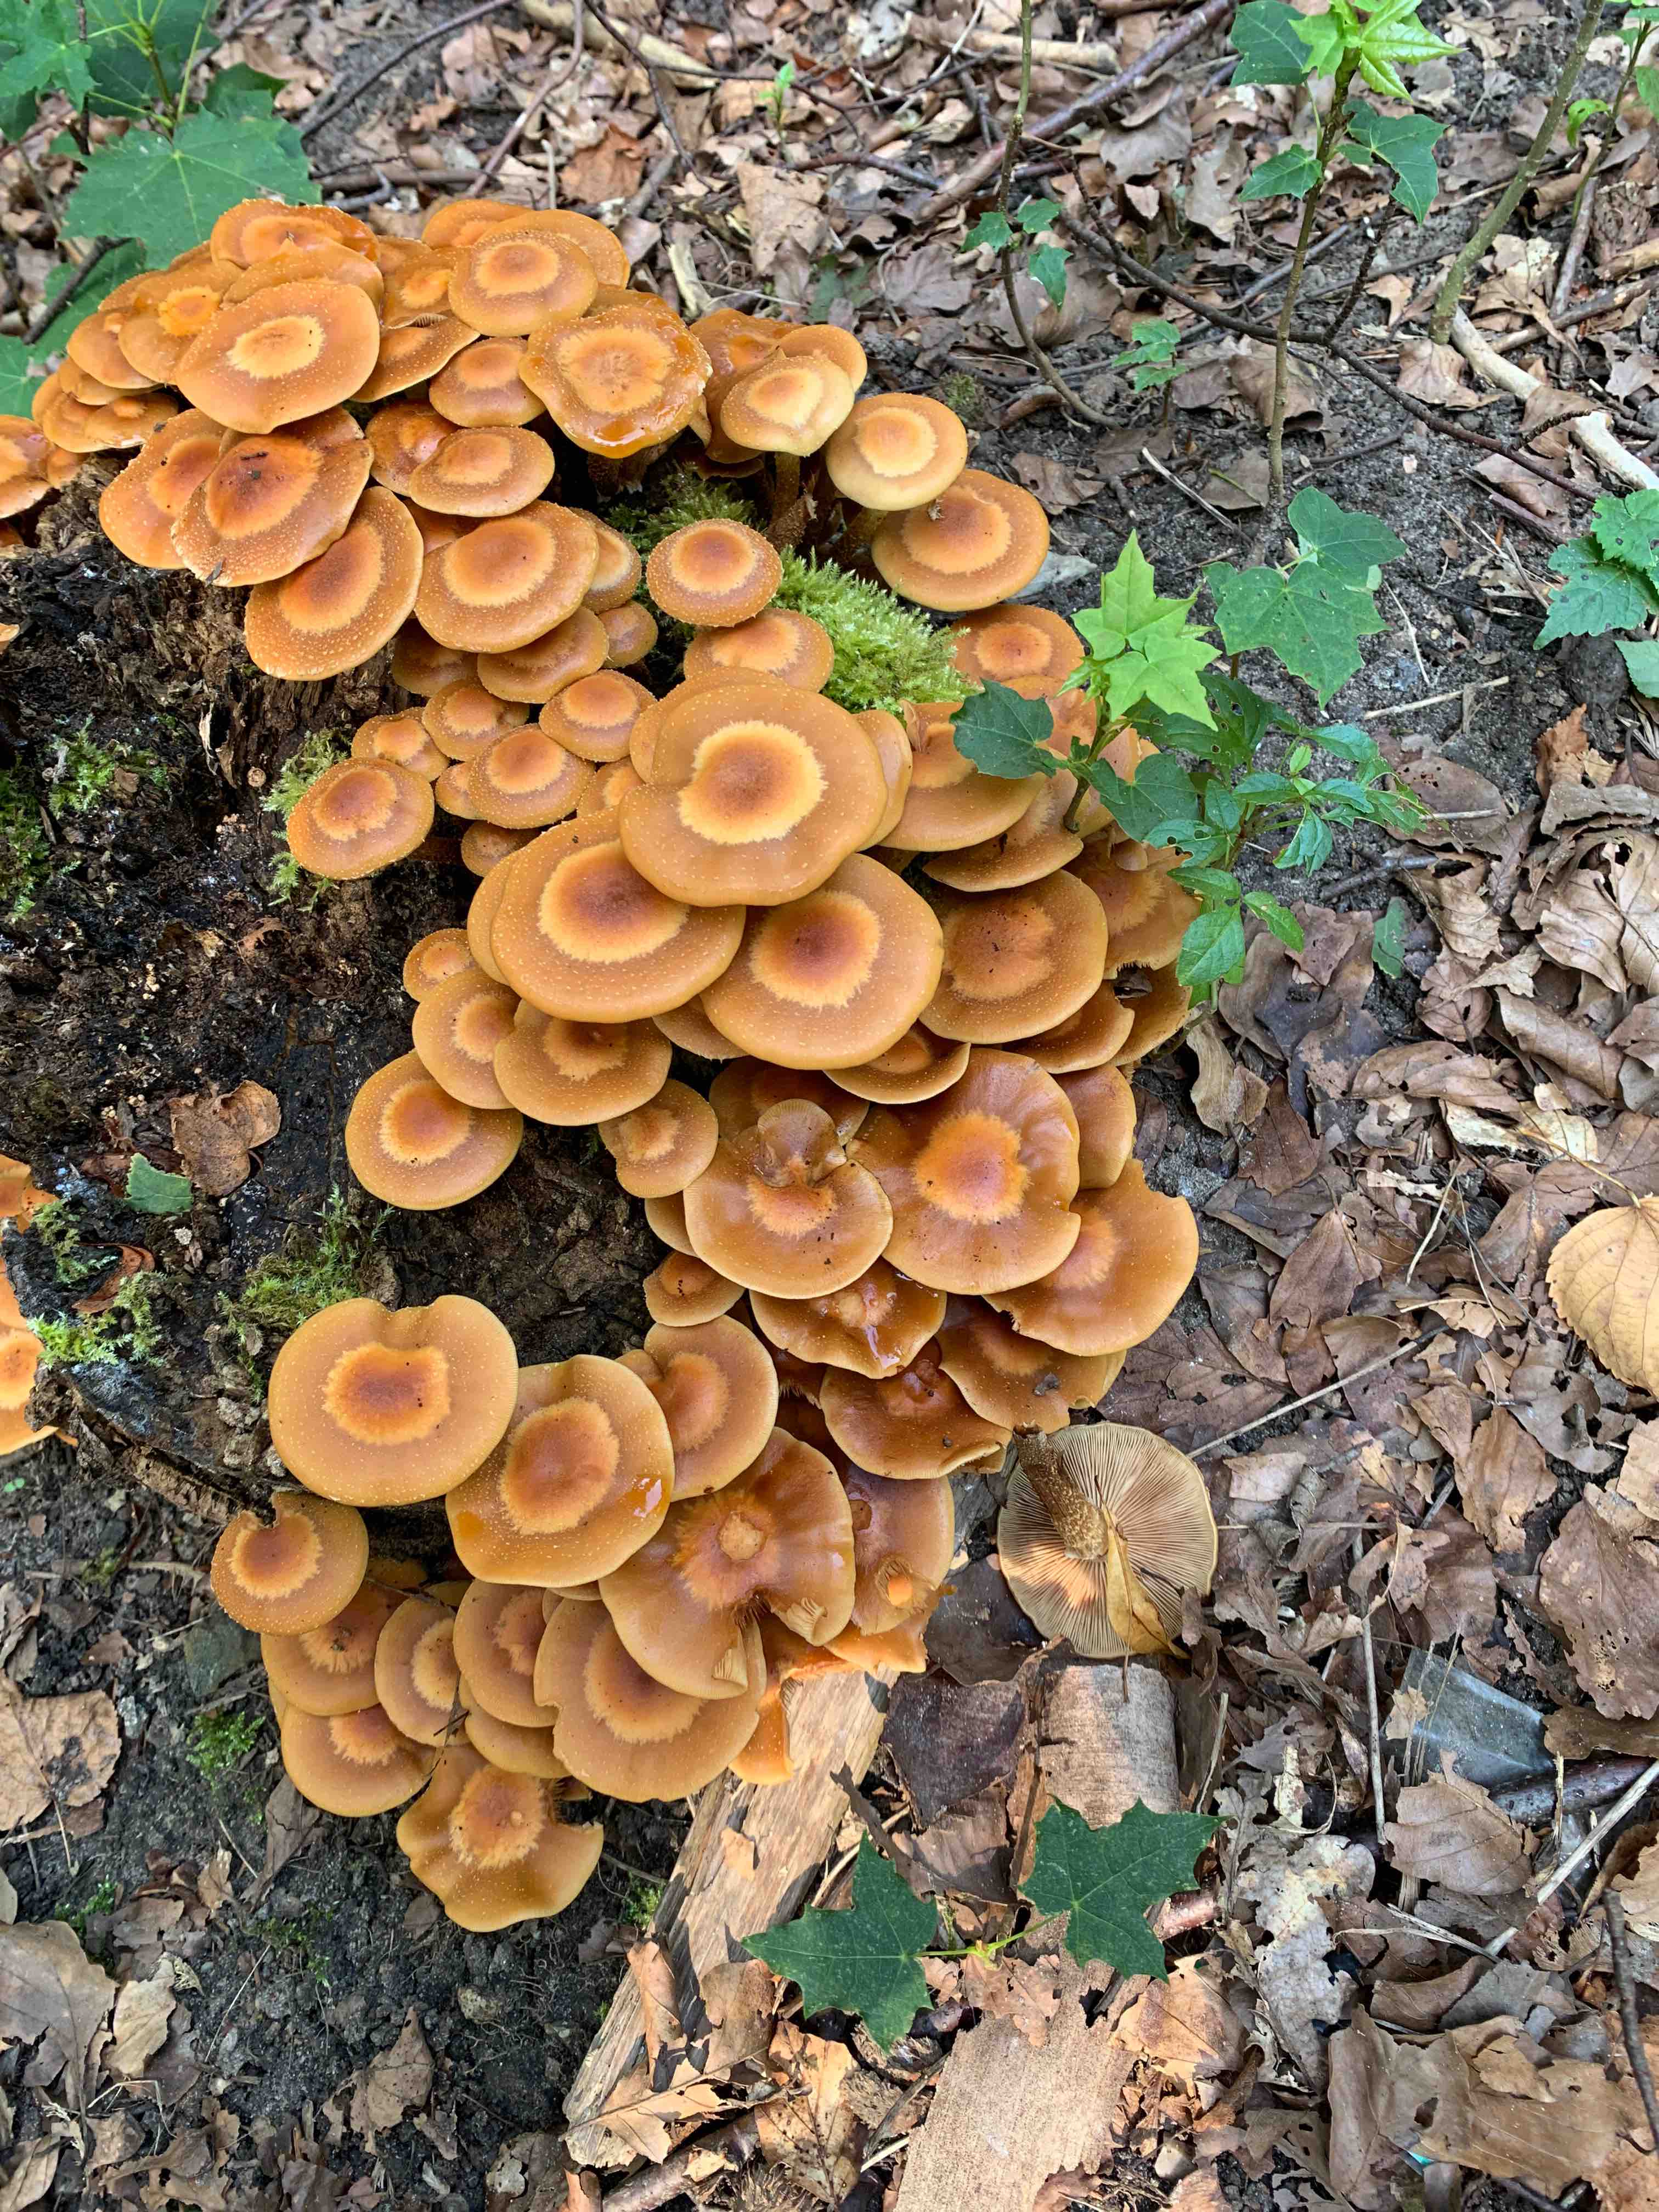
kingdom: Fungi
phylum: Basidiomycota
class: Agaricomycetes
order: Agaricales
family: Strophariaceae
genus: Kuehneromyces
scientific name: Kuehneromyces mutabilis
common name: foranderlig skælhat
